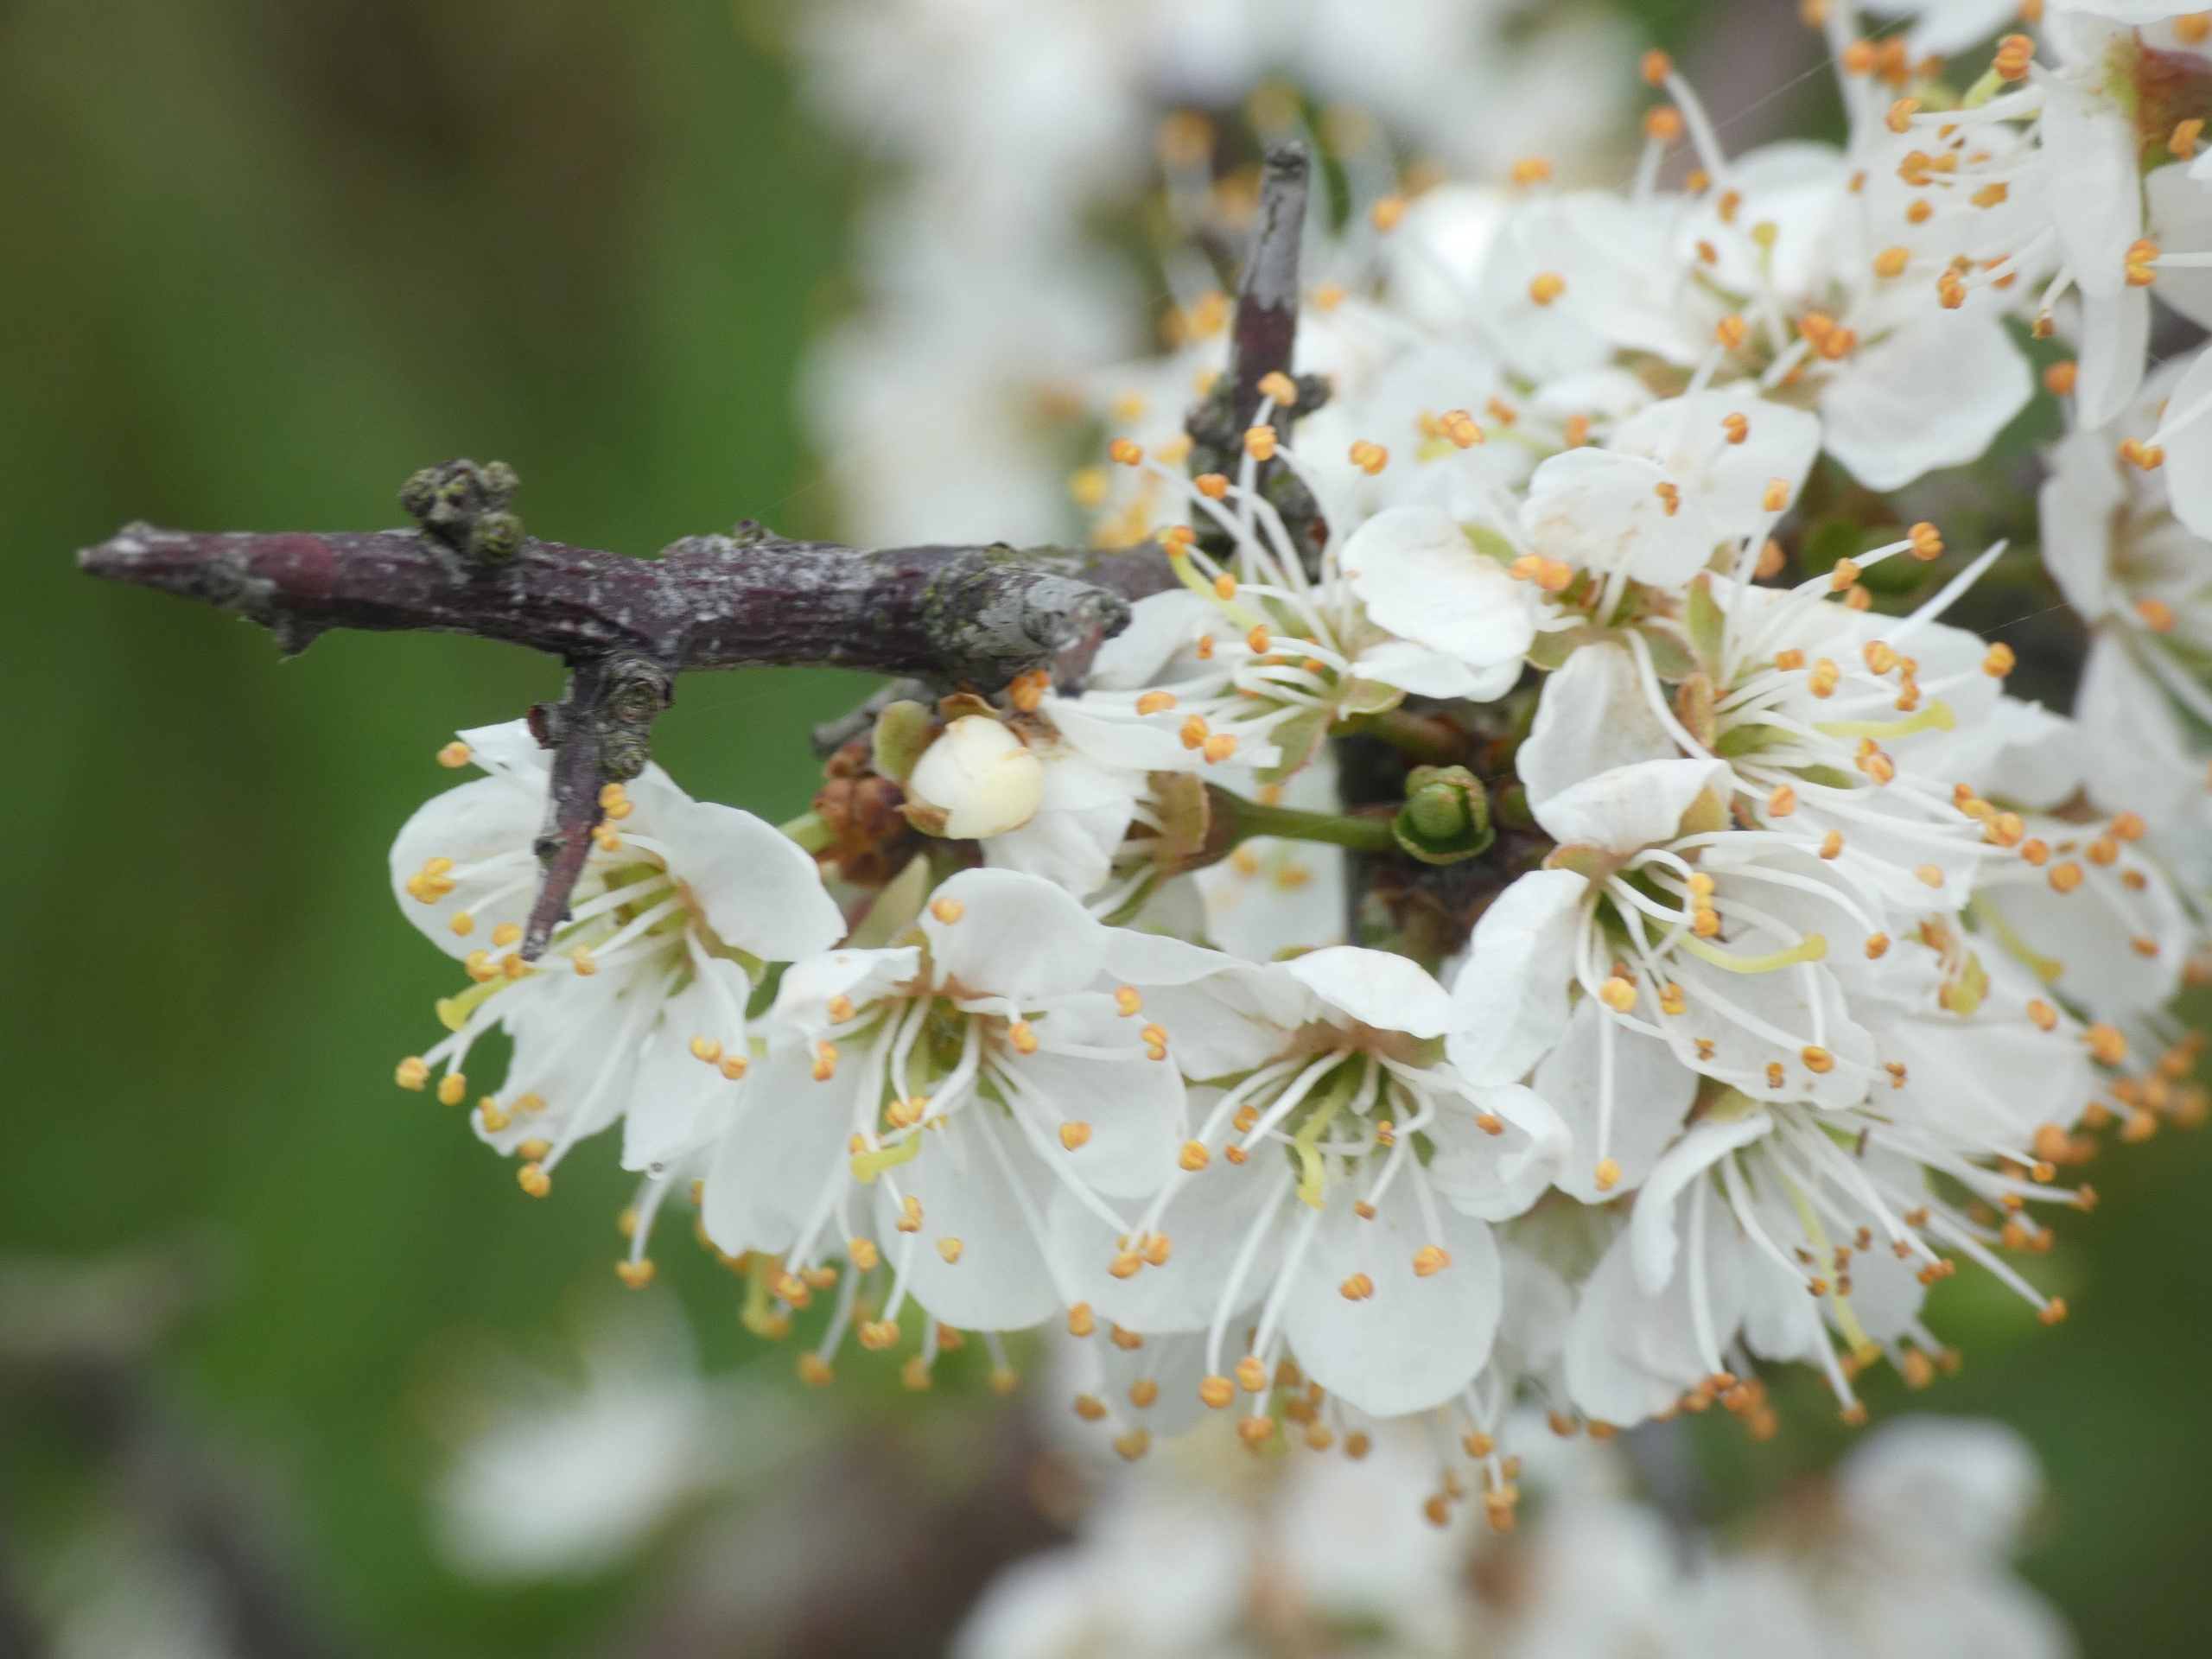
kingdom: Plantae
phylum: Tracheophyta
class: Magnoliopsida
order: Rosales
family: Rosaceae
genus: Prunus
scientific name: Prunus spinosa
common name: Slåen
